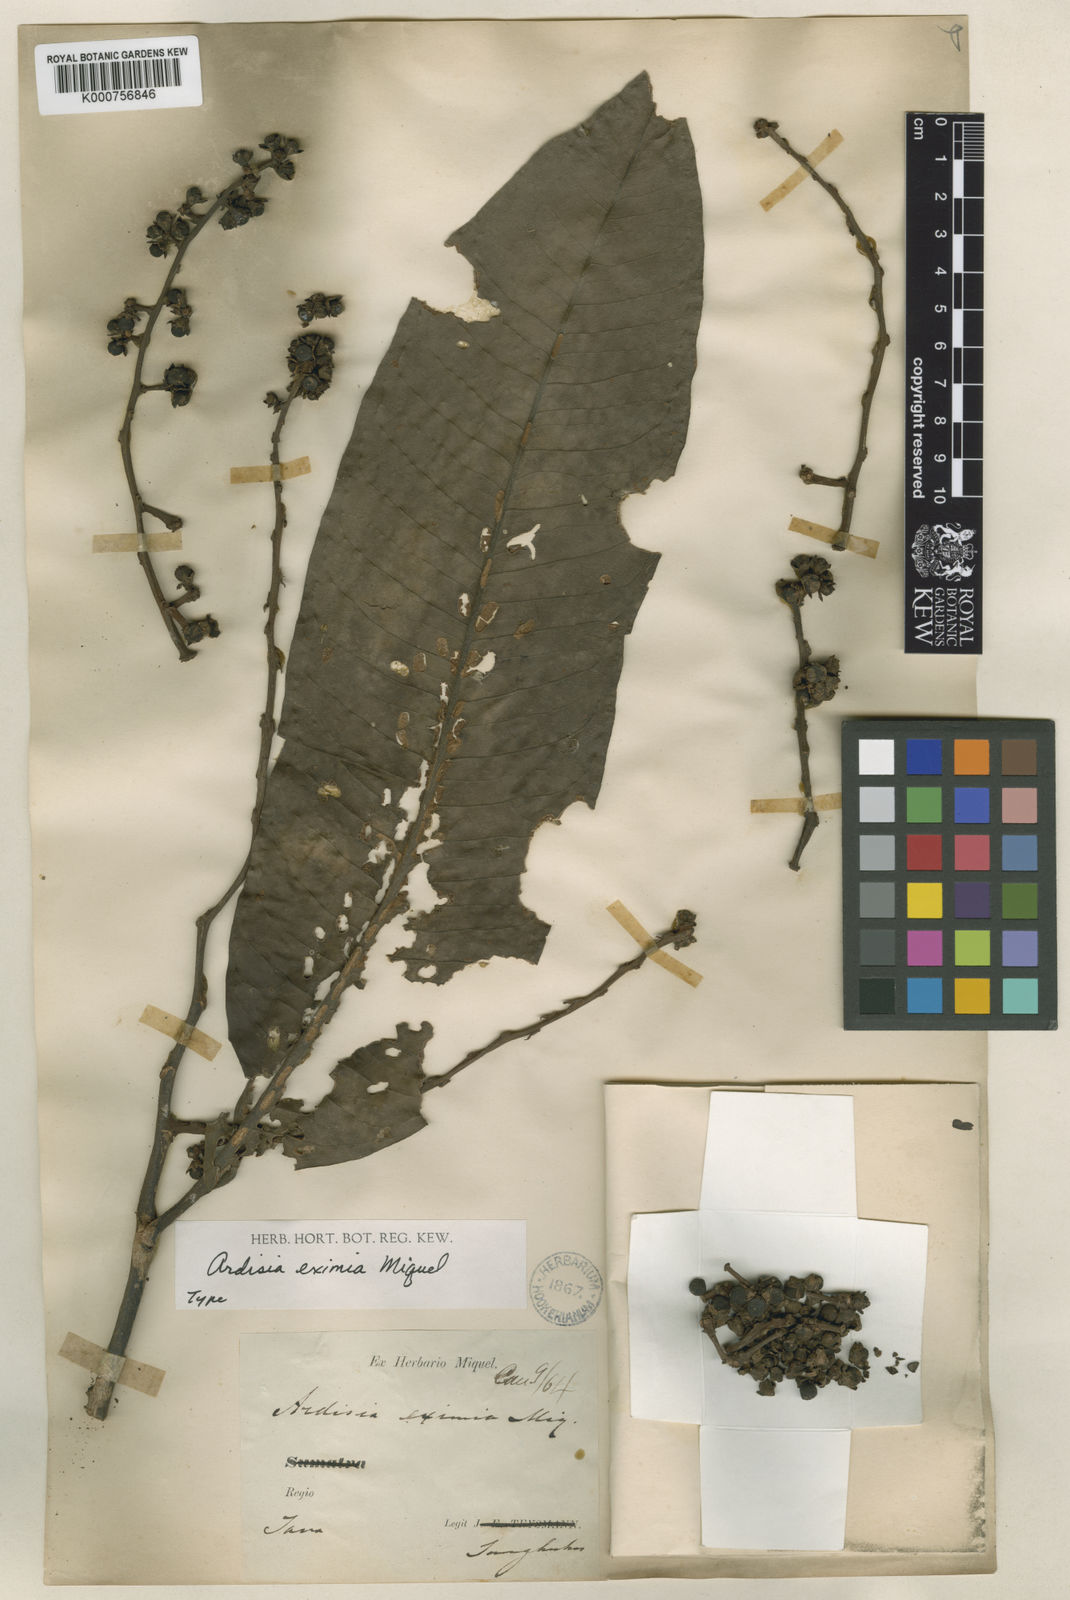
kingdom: Plantae
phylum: Tracheophyta
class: Magnoliopsida
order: Ericales
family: Primulaceae
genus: Ardisia
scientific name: Ardisia eximia
